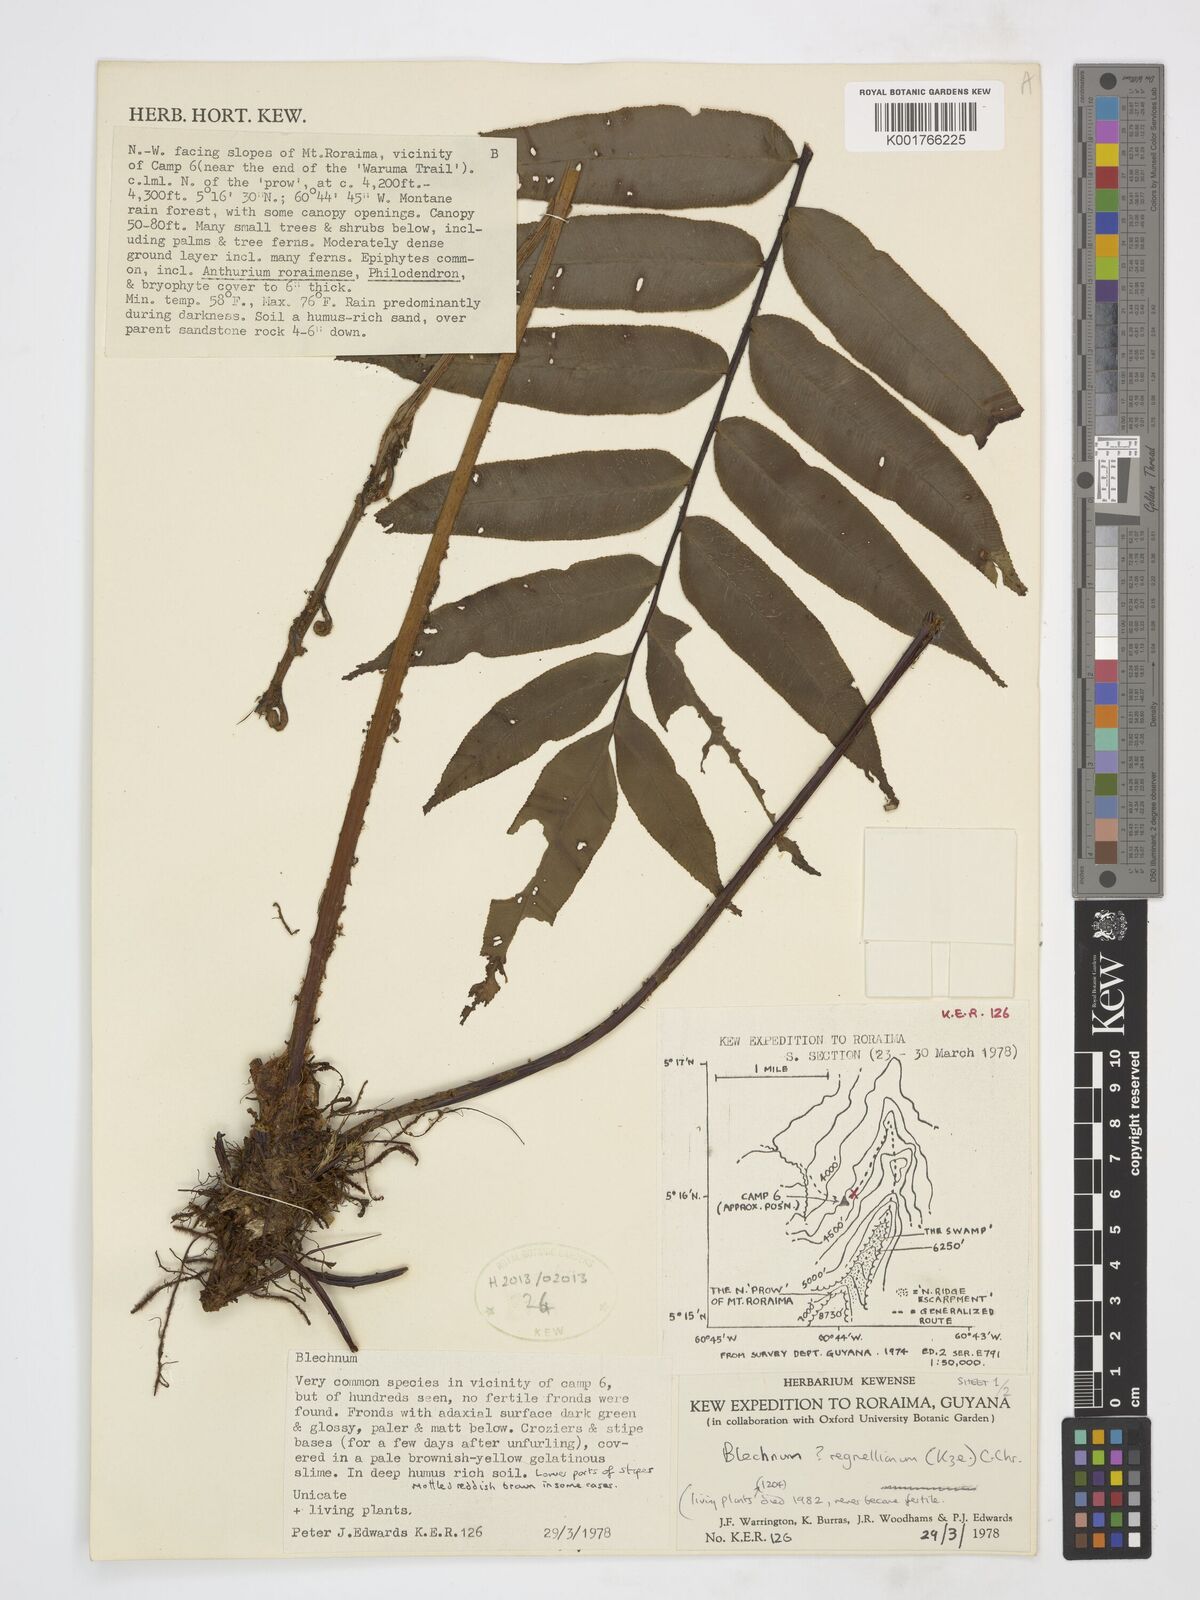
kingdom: Plantae
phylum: Tracheophyta
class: Polypodiopsida
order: Polypodiales
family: Blechnaceae
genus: Parablechnum
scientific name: Parablechnum cordatum
